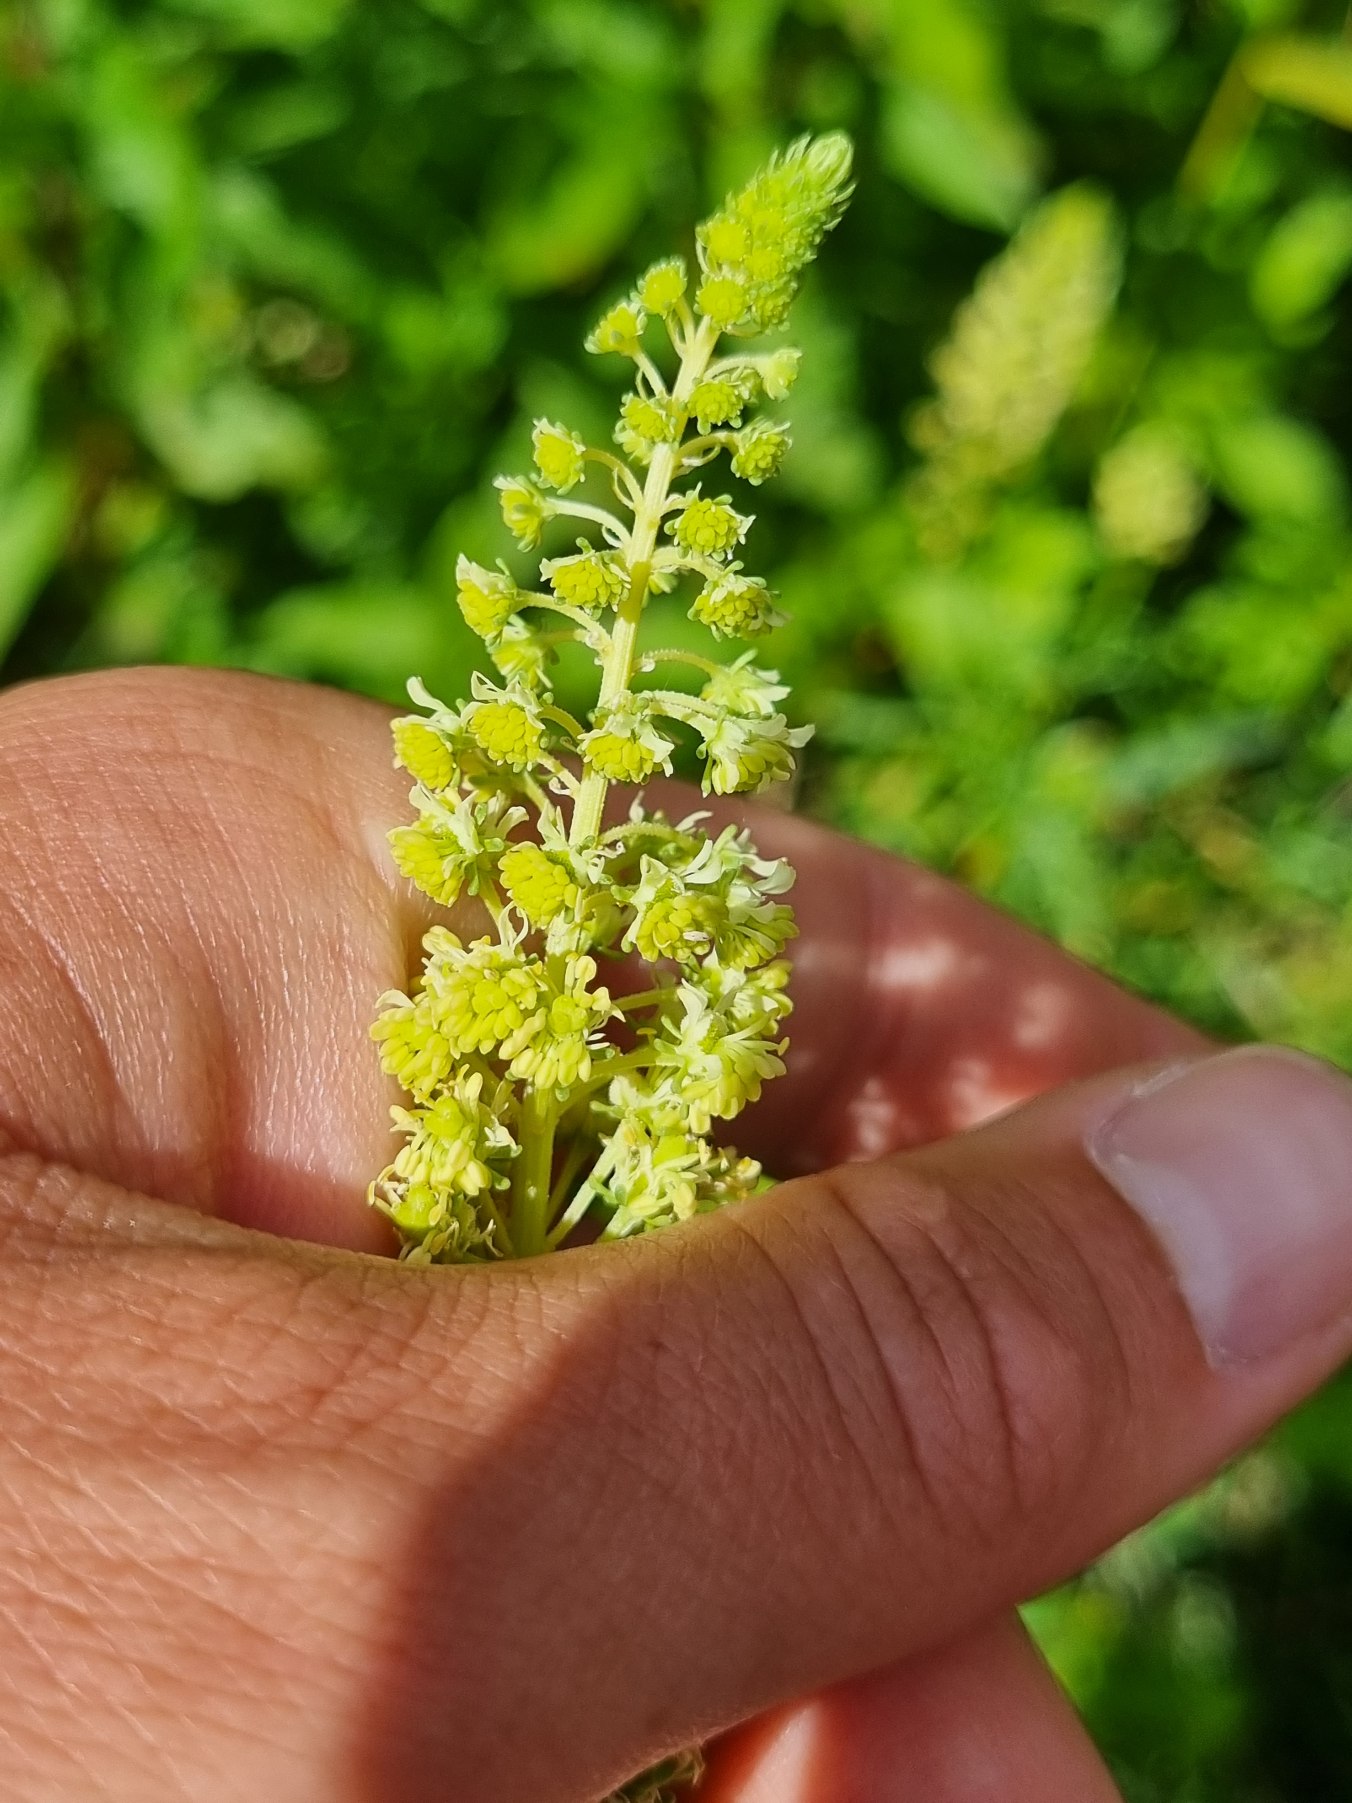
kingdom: Plantae
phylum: Tracheophyta
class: Magnoliopsida
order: Brassicales
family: Resedaceae
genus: Reseda
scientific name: Reseda lutea
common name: Gul reseda
